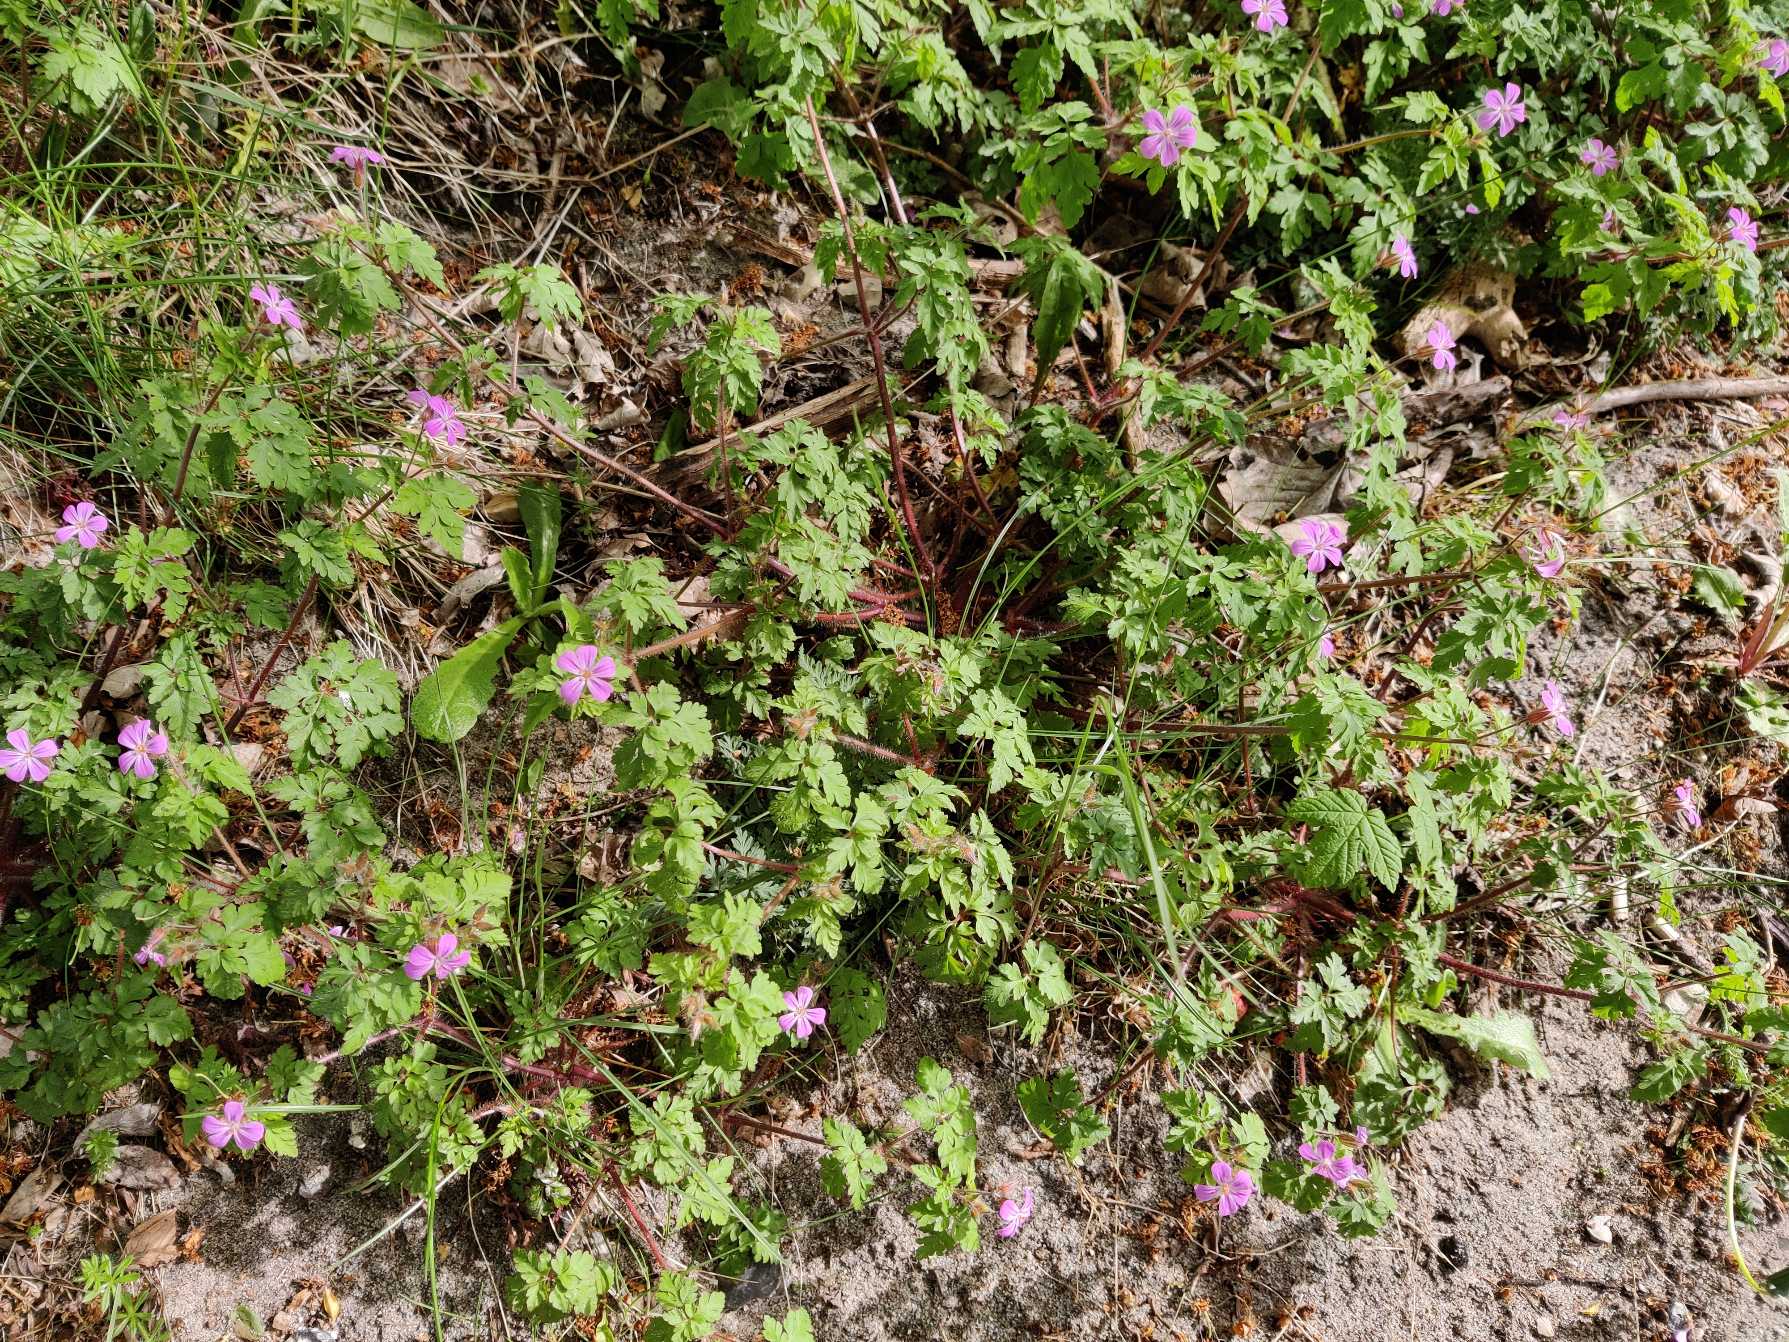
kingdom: Plantae
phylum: Tracheophyta
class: Magnoliopsida
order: Geraniales
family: Geraniaceae
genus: Geranium
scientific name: Geranium robertianum
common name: Stinkende storkenæb
